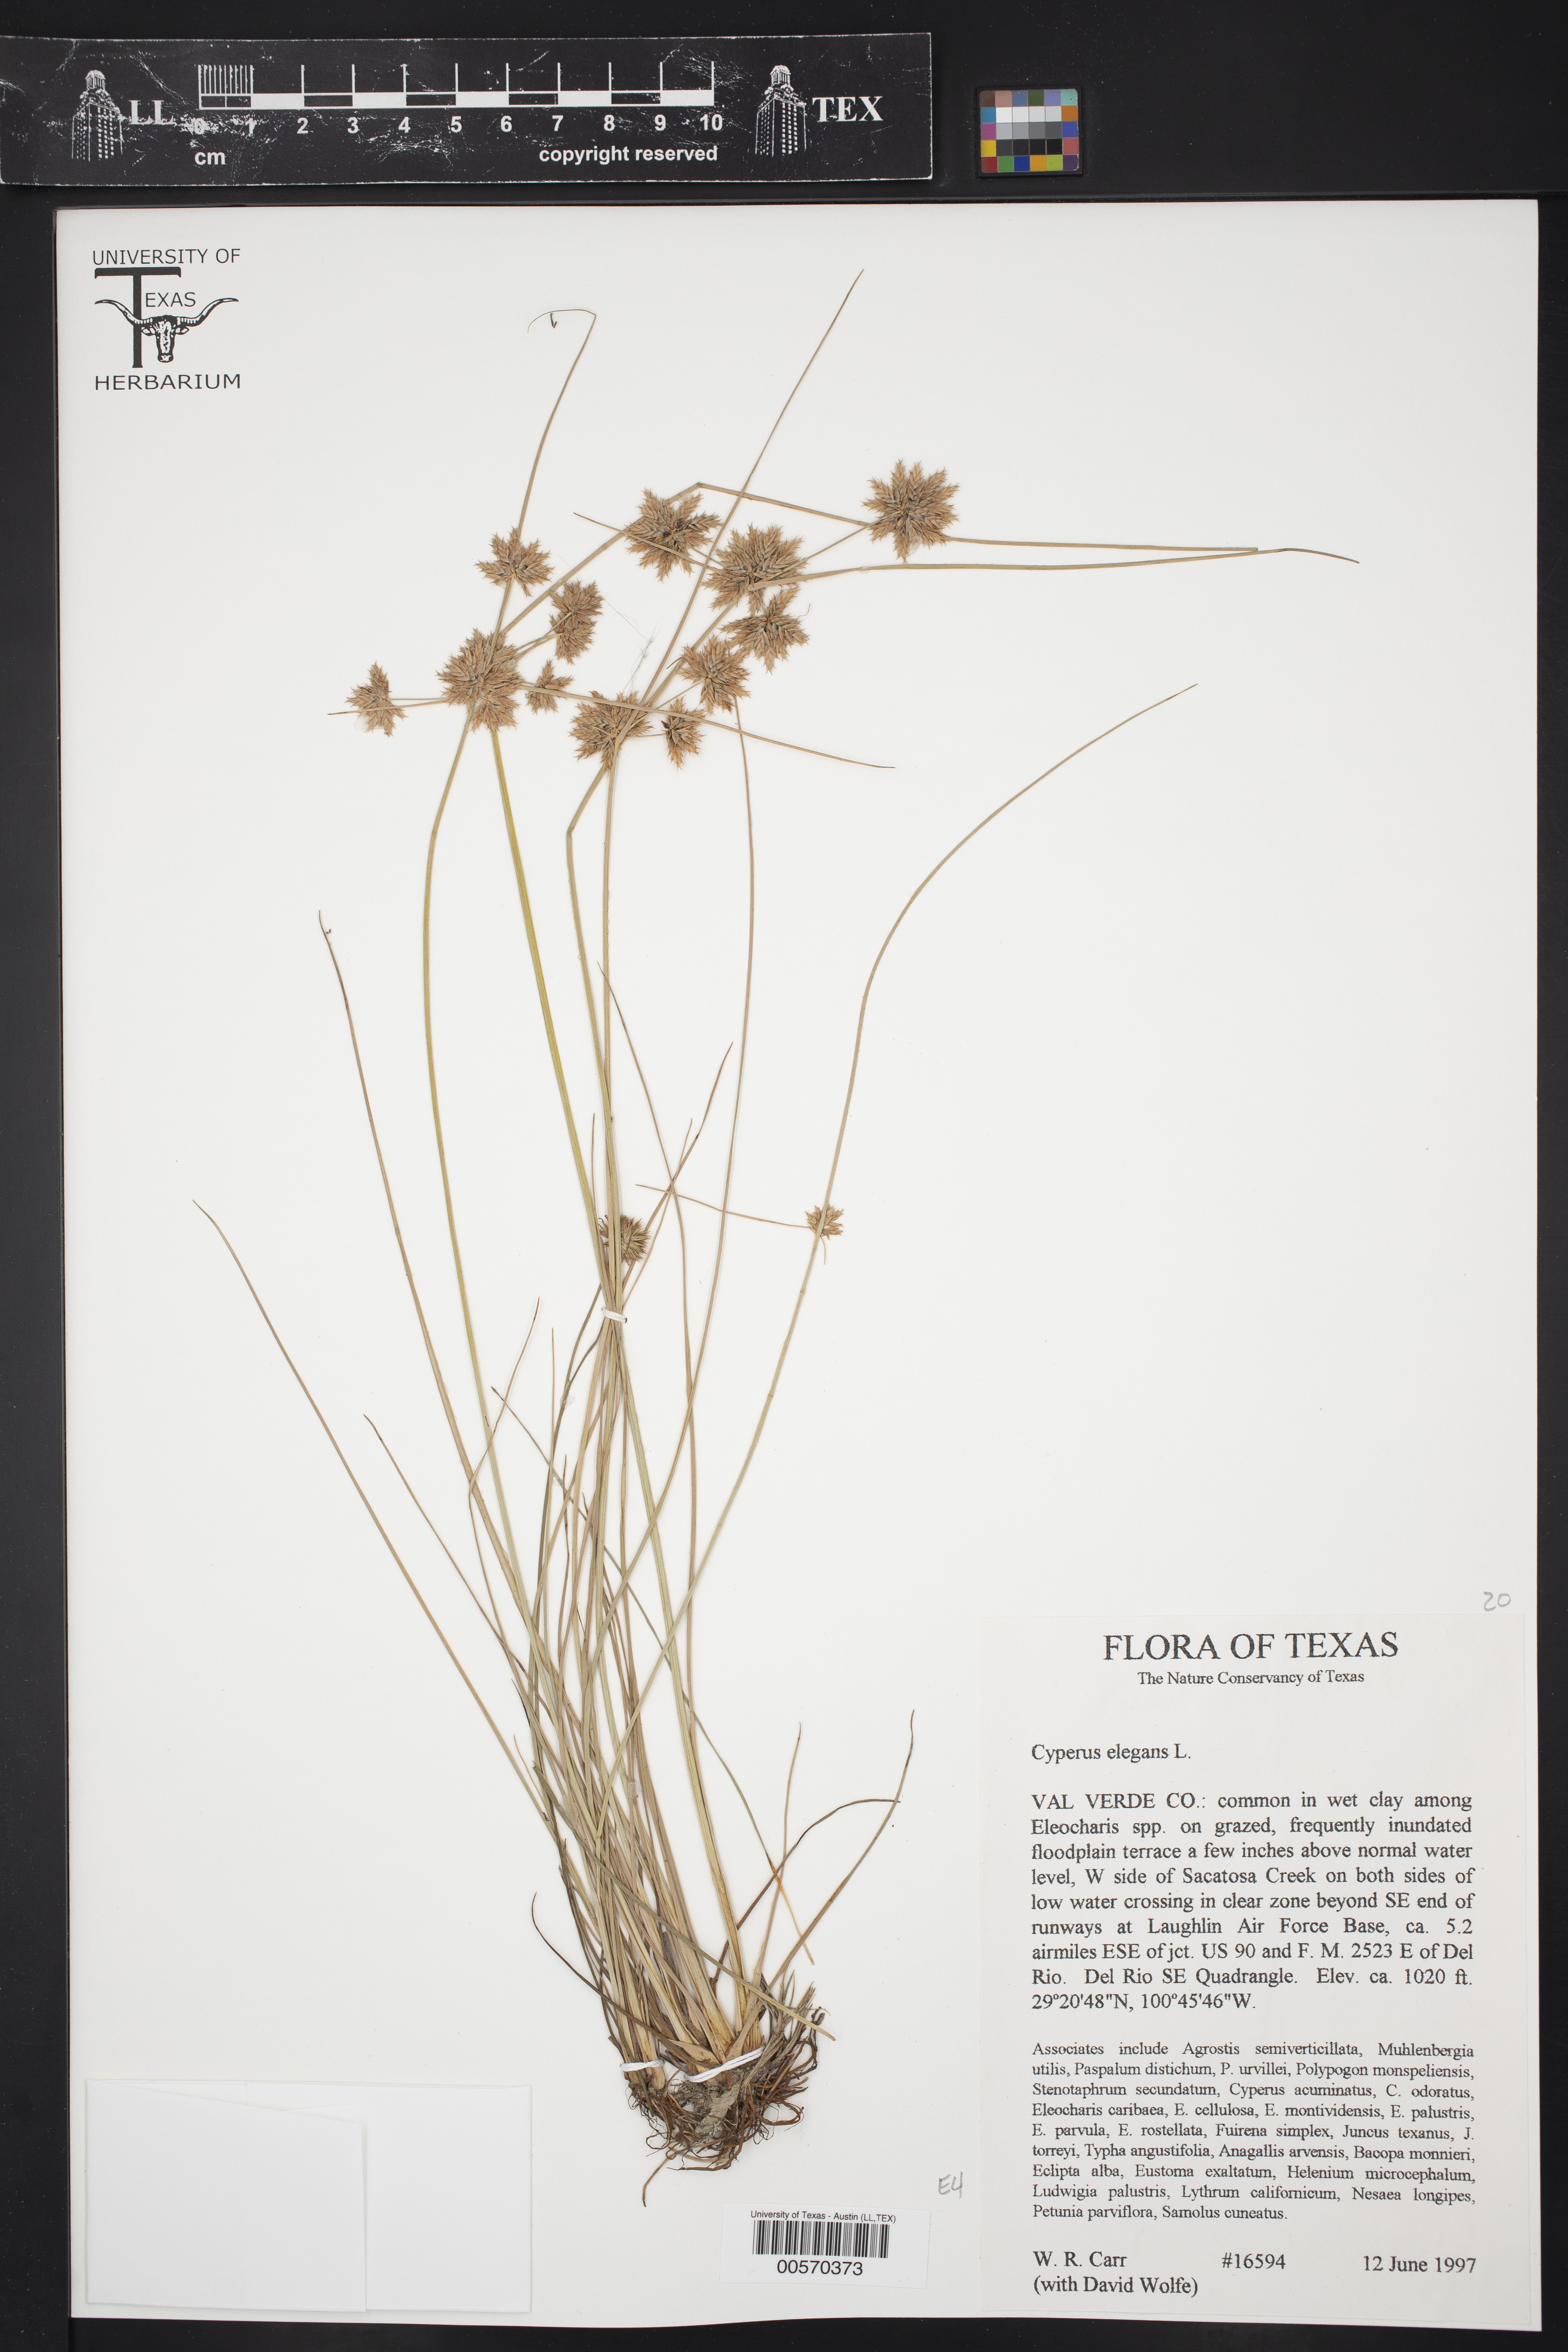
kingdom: Plantae
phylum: Tracheophyta
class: Liliopsida
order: Poales
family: Cyperaceae
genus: Cyperus
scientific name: Cyperus elegans
